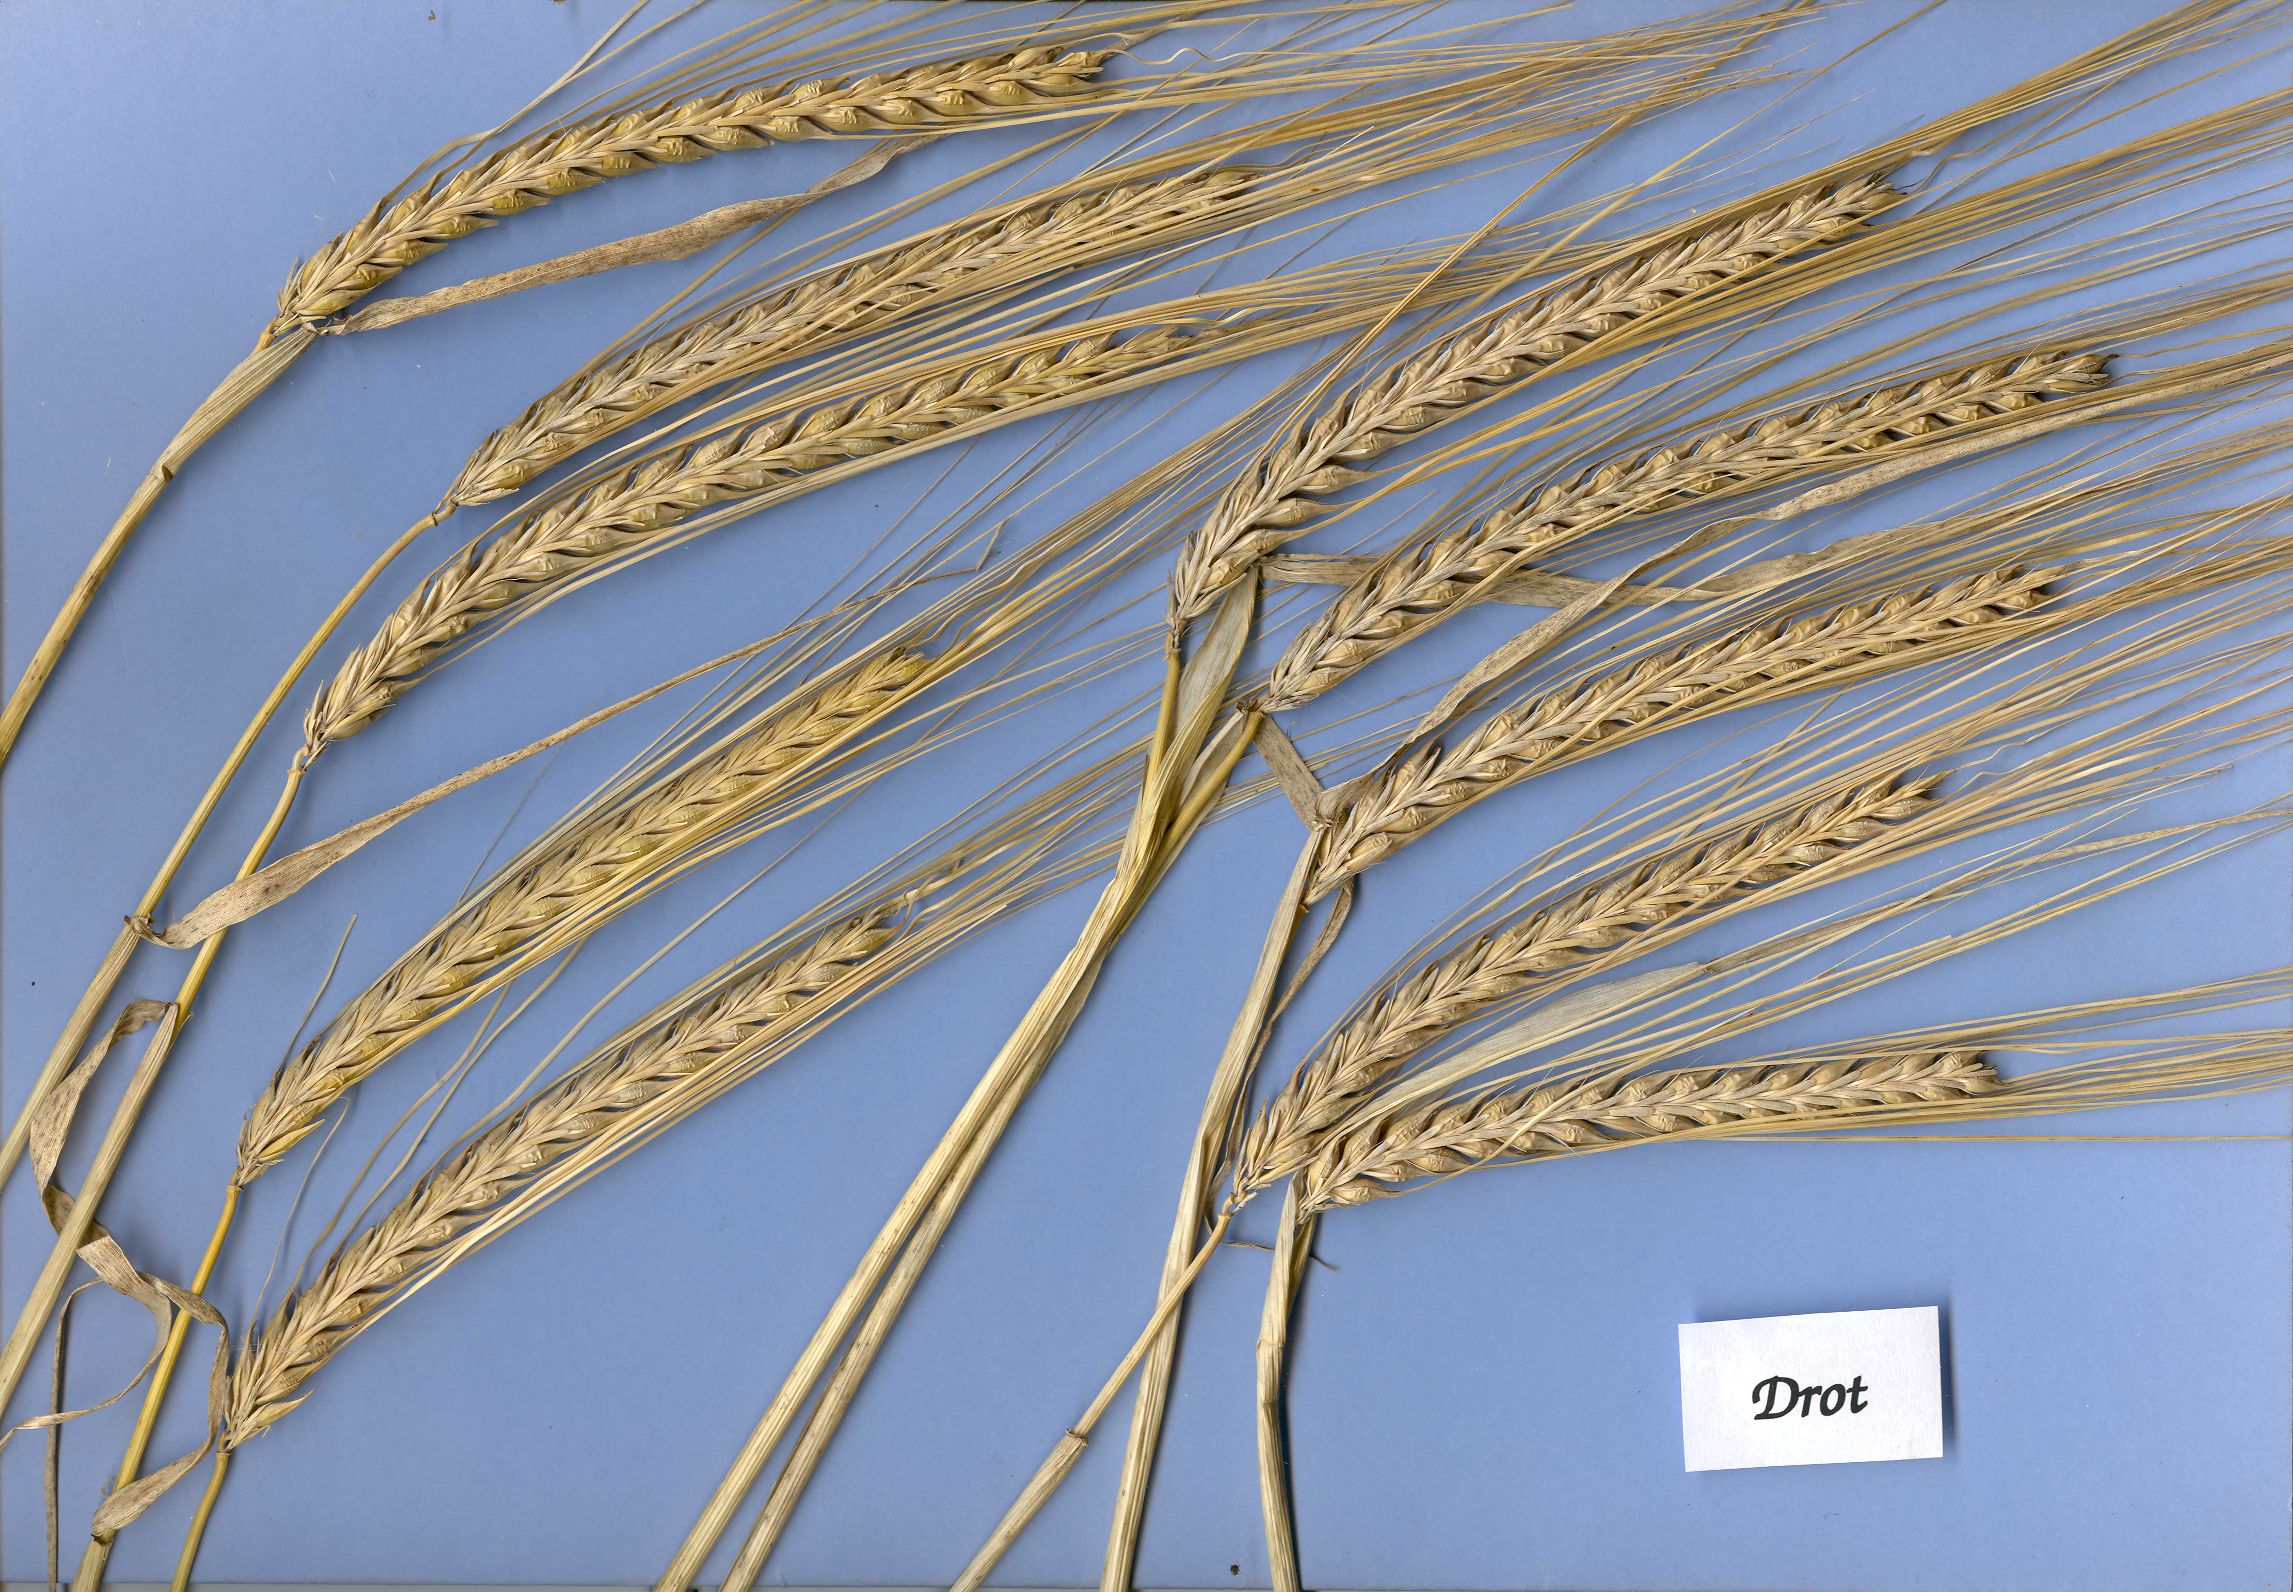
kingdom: Plantae
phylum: Tracheophyta
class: Liliopsida
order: Poales
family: Poaceae
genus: Hordeum
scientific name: Hordeum vulgare
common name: Common barley
